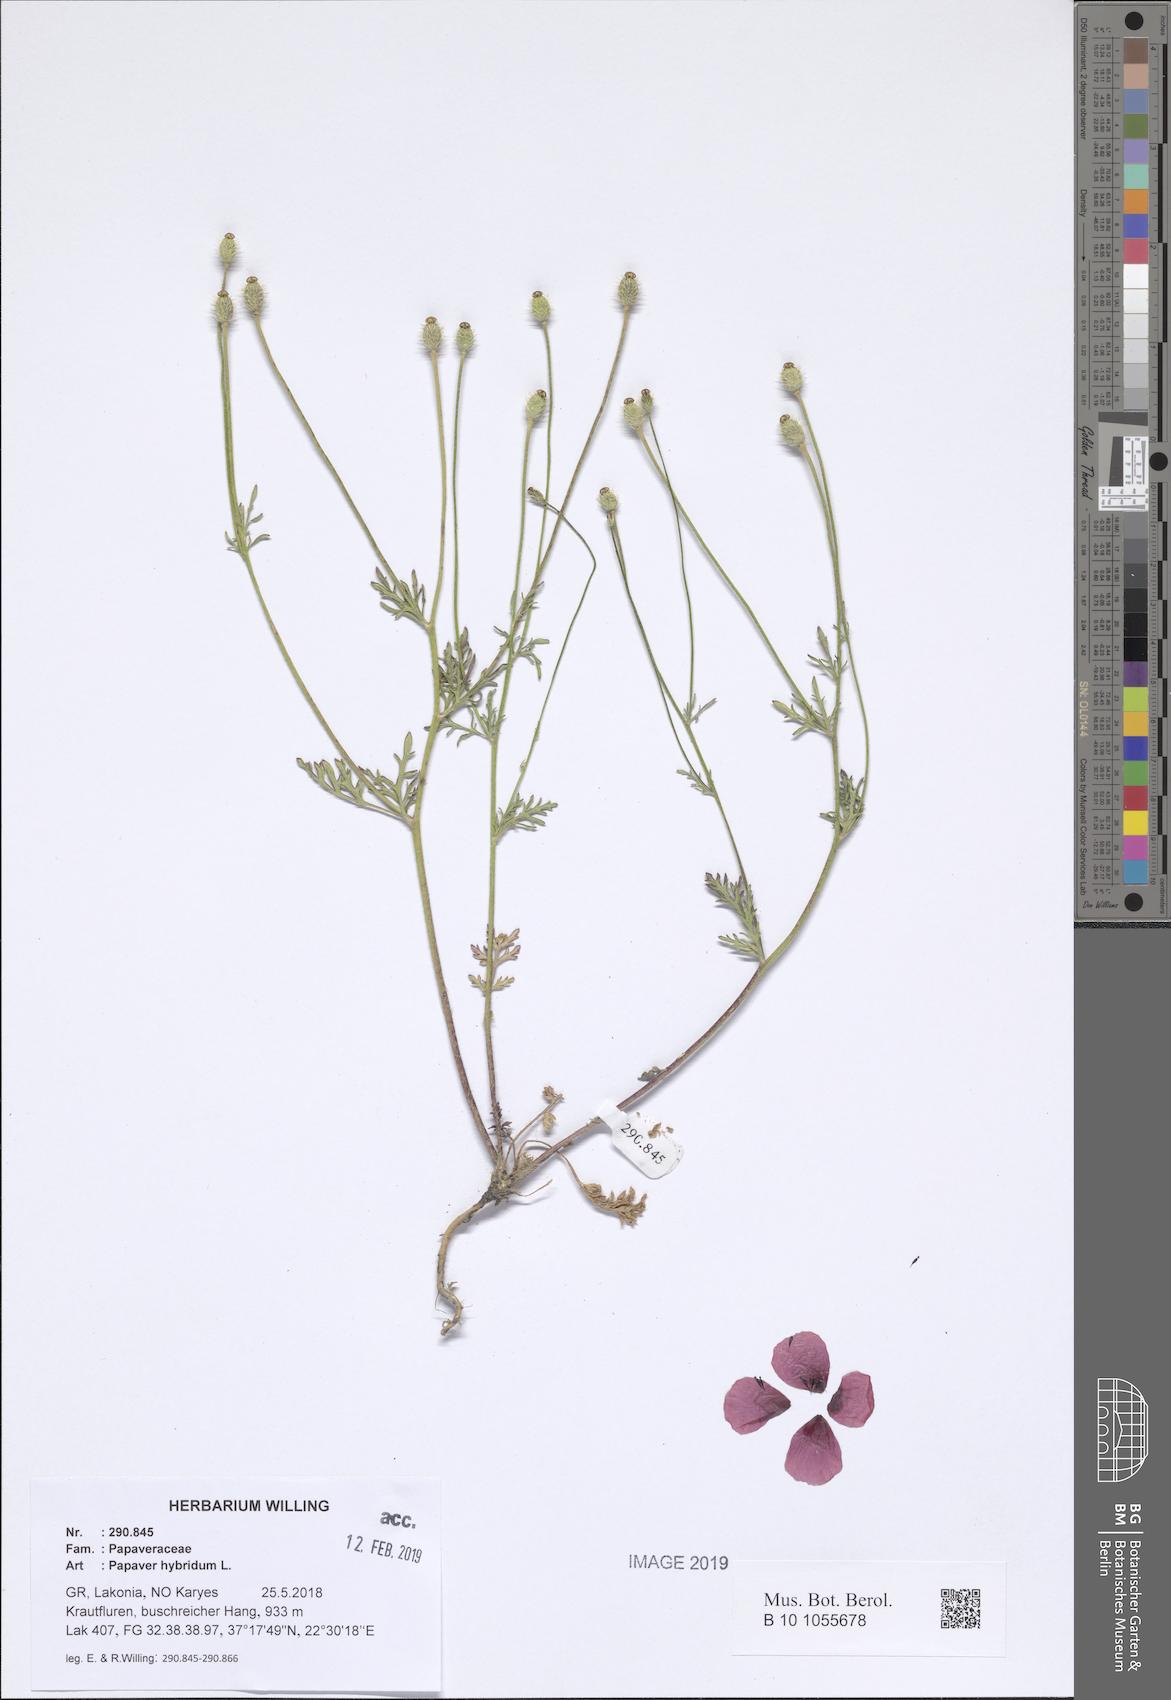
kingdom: Plantae
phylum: Tracheophyta
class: Magnoliopsida
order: Ranunculales
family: Papaveraceae
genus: Roemeria
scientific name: Roemeria hispida
